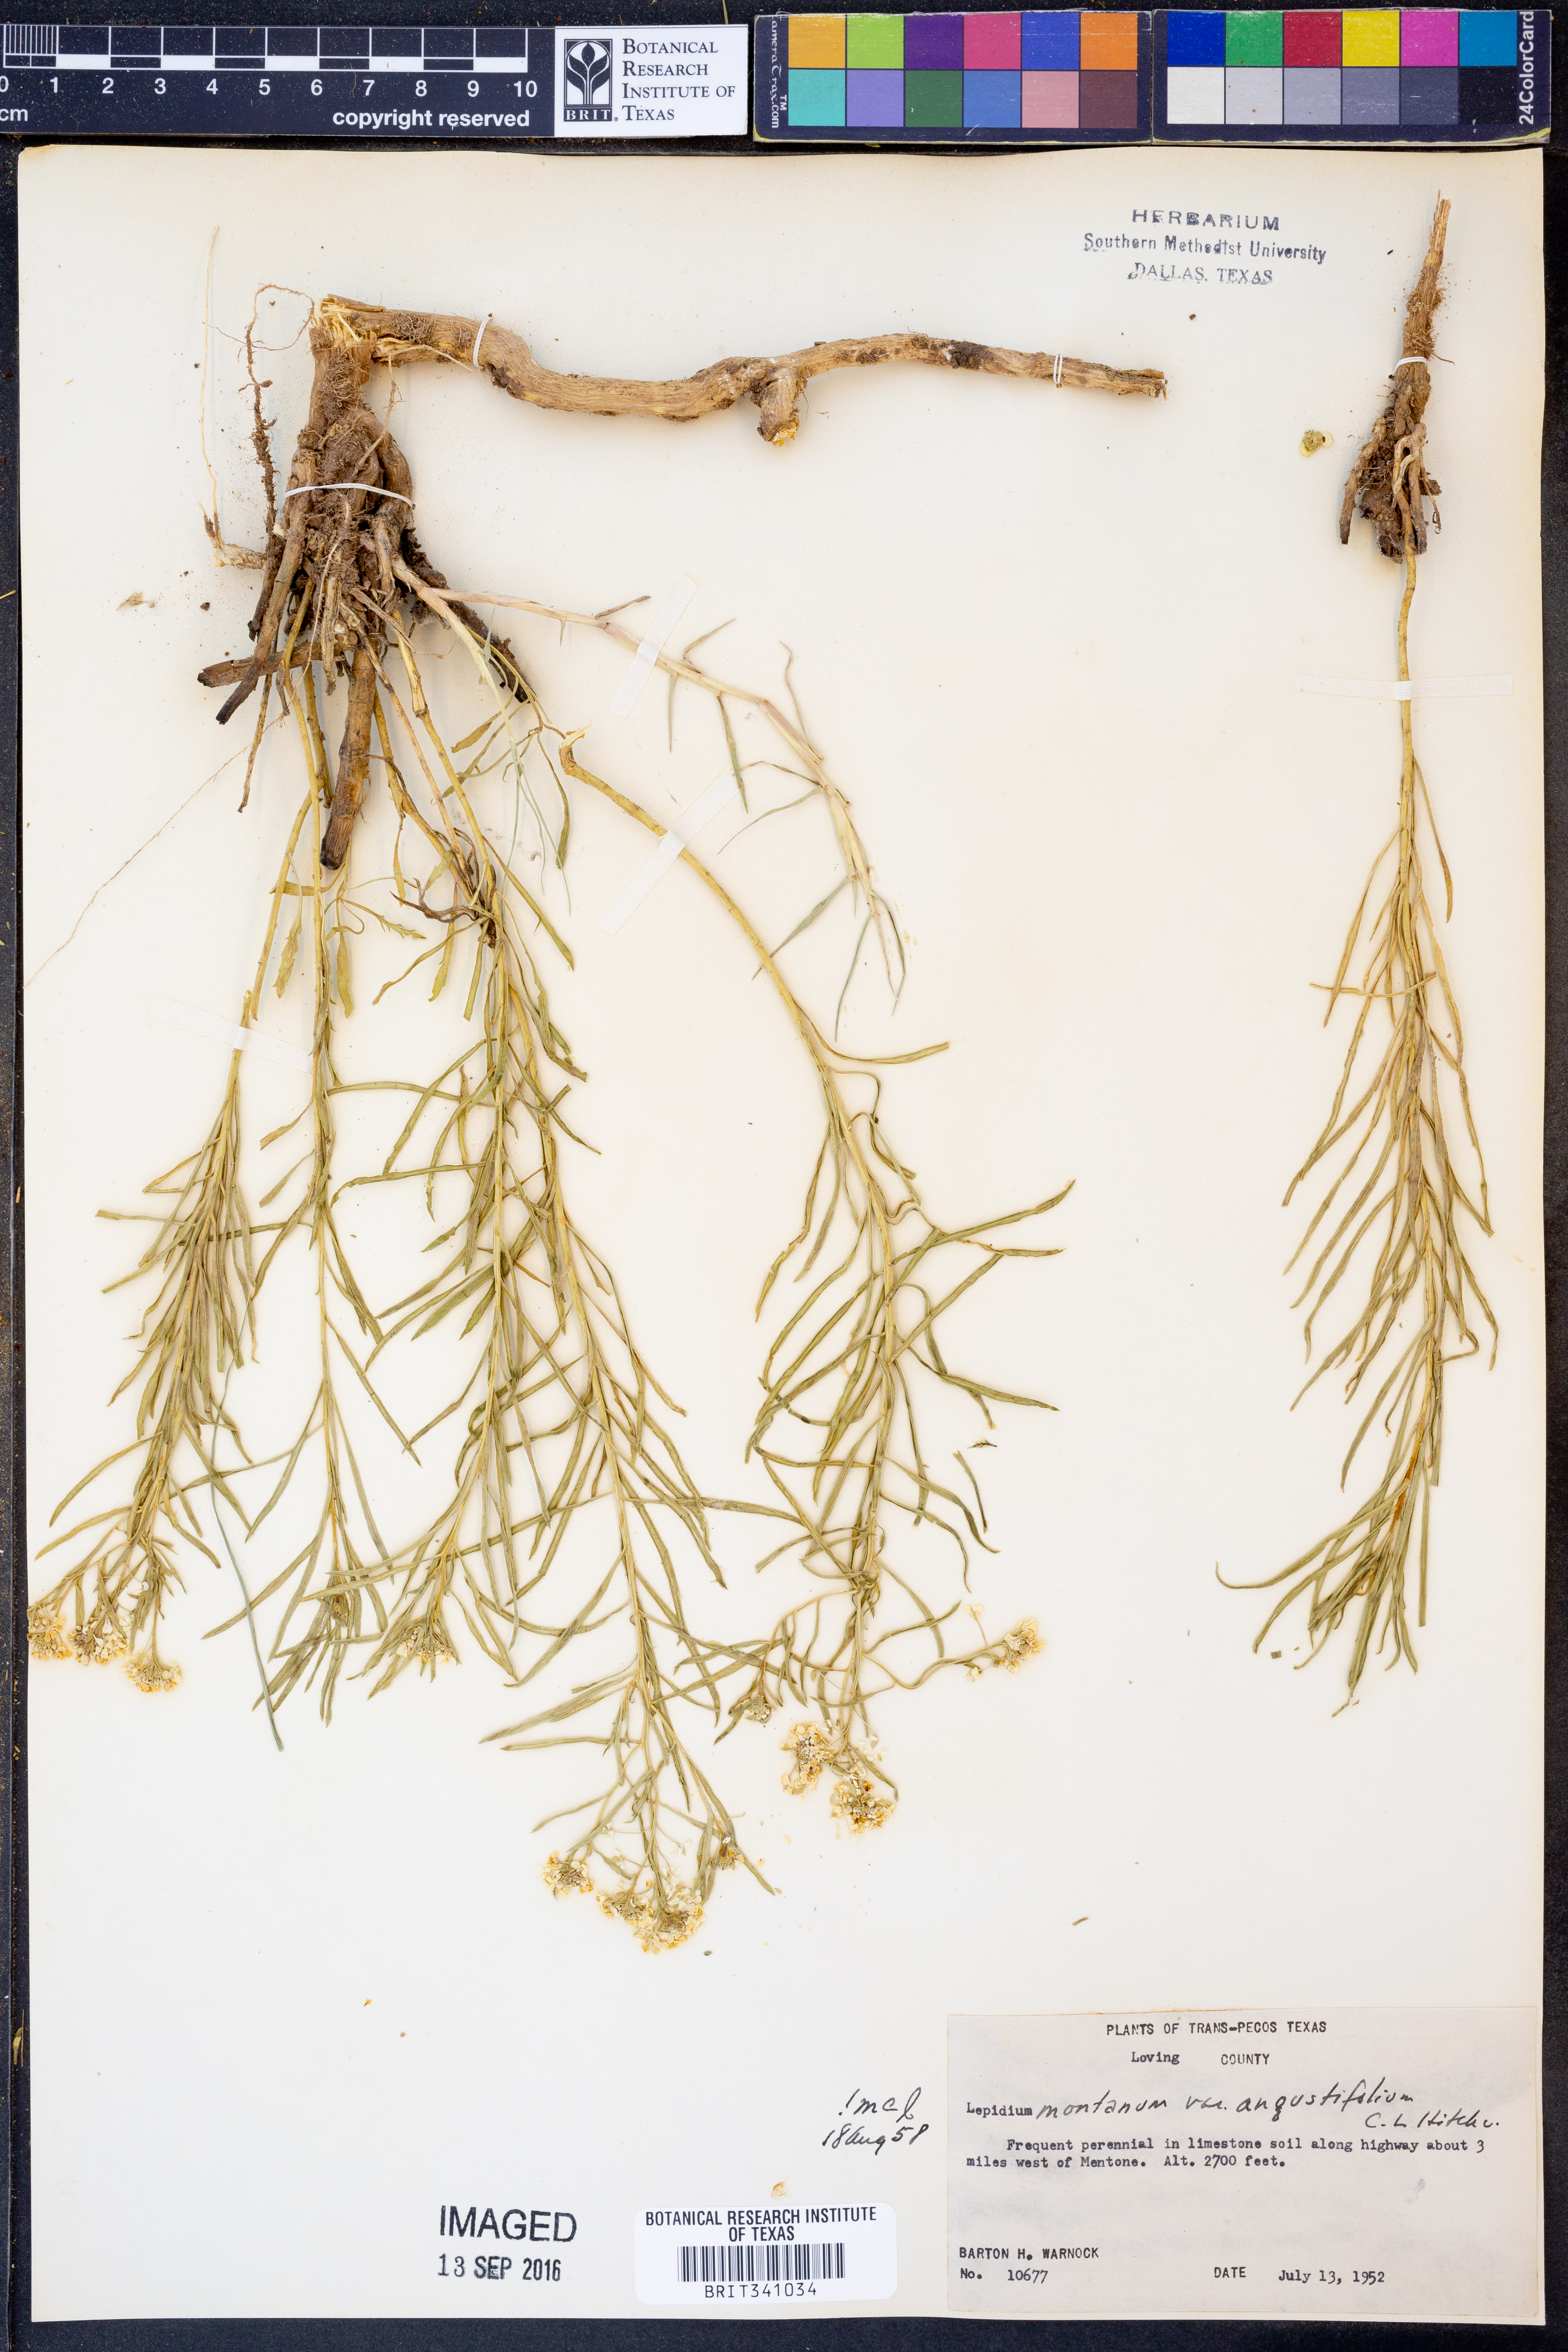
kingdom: Plantae
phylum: Tracheophyta
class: Magnoliopsida
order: Brassicales
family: Brassicaceae
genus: Lepidium
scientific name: Lepidium alyssoides
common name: Mesa pepperweed
